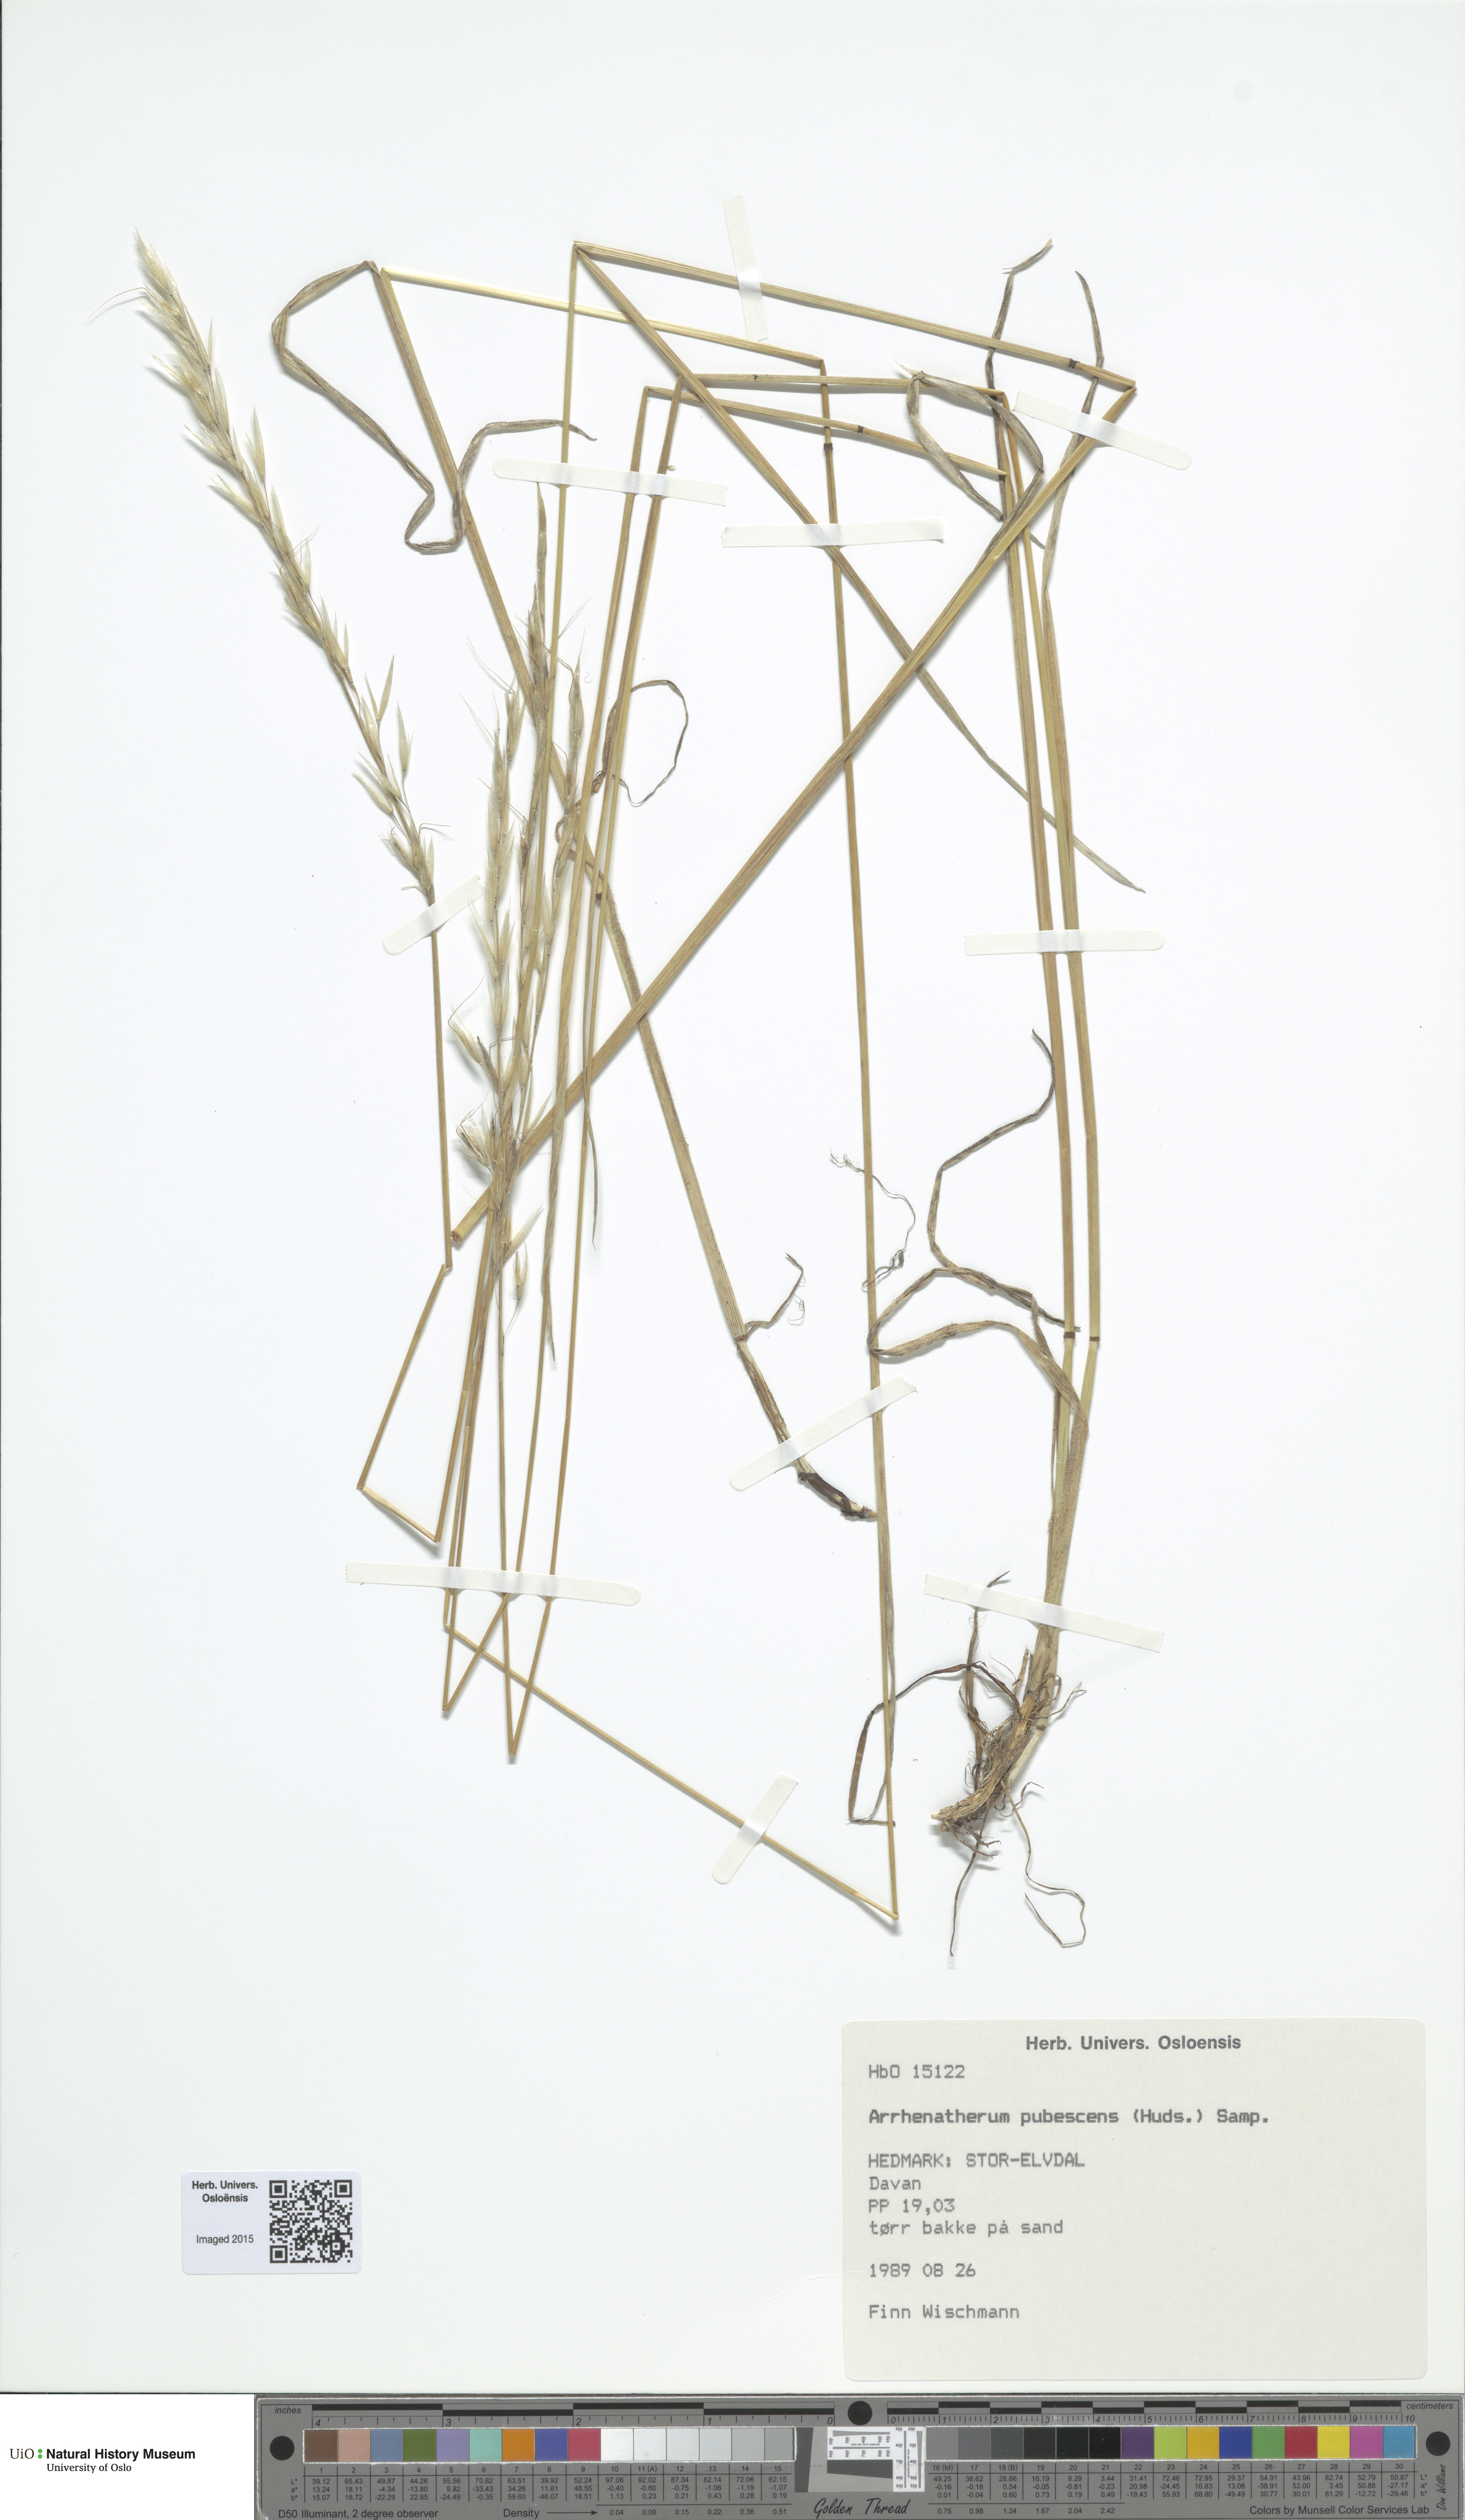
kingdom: Plantae
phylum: Tracheophyta
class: Liliopsida
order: Poales
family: Poaceae
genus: Avenula
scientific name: Avenula pubescens
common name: Downy alpine oatgrass
